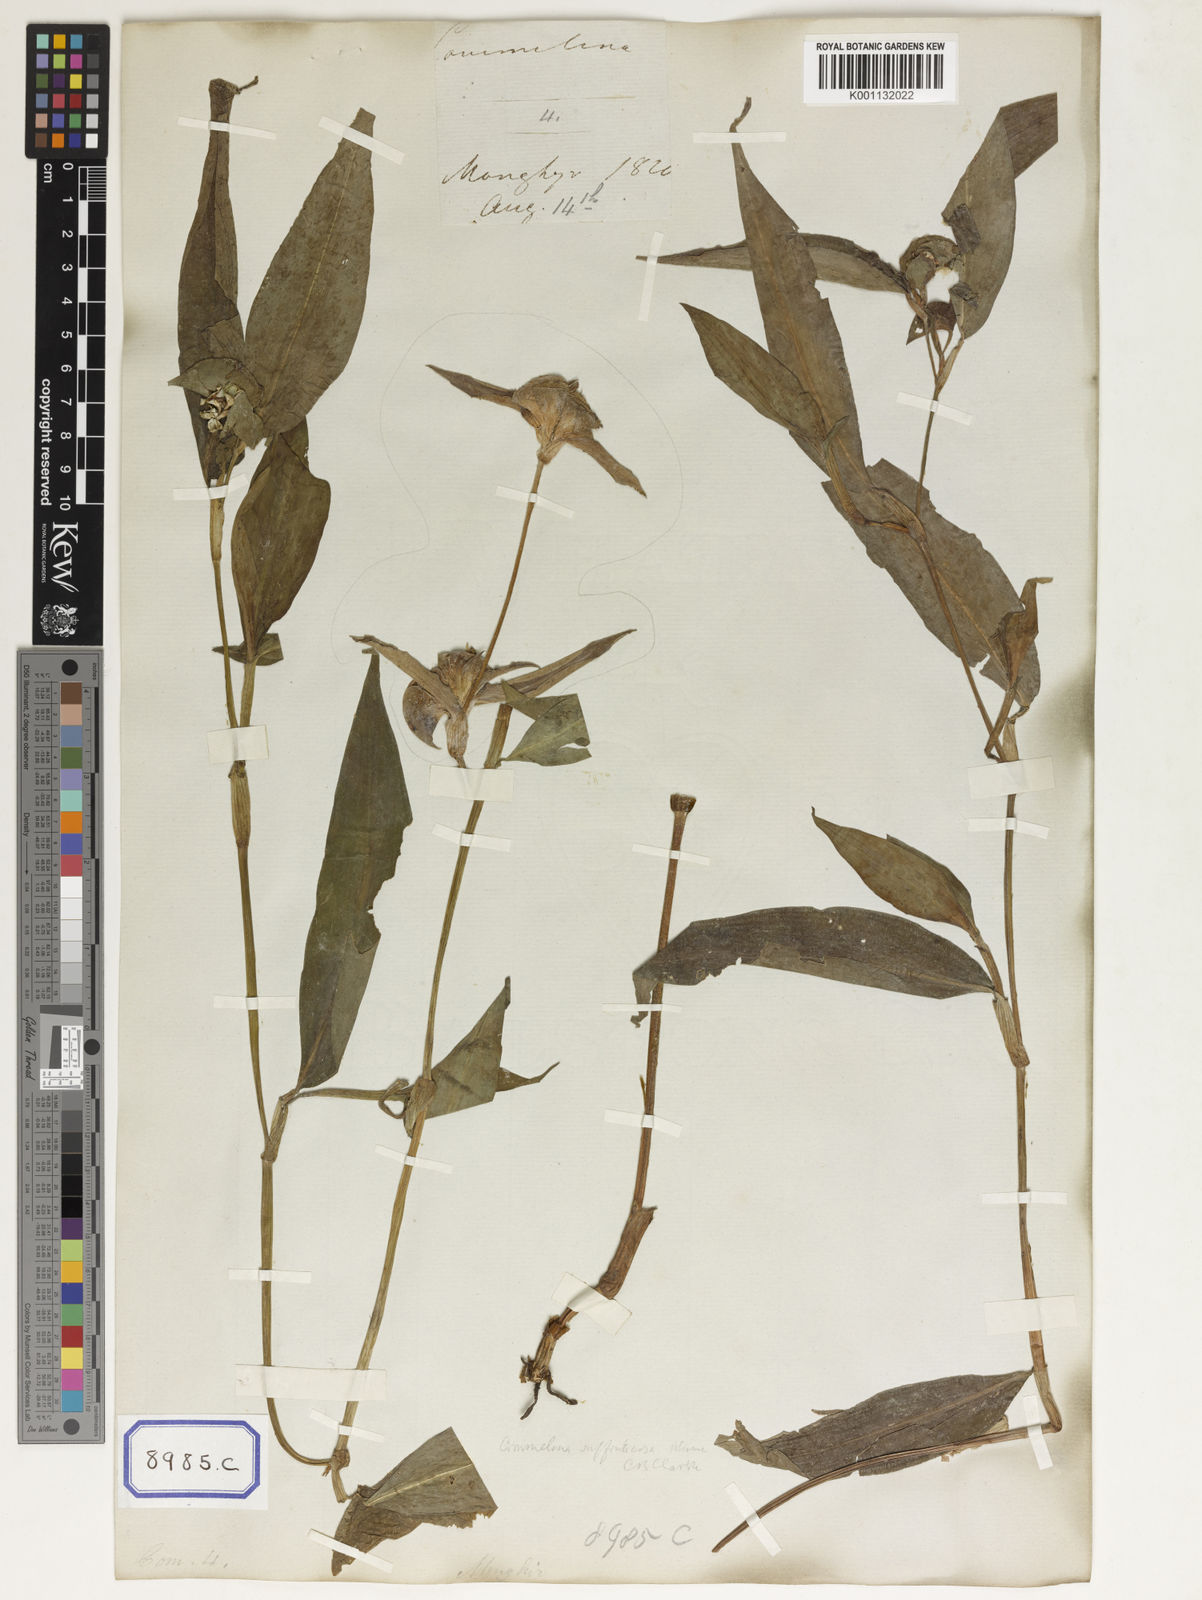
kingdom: Plantae
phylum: Tracheophyta
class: Liliopsida
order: Commelinales
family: Commelinaceae
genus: Commelina
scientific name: Commelina
